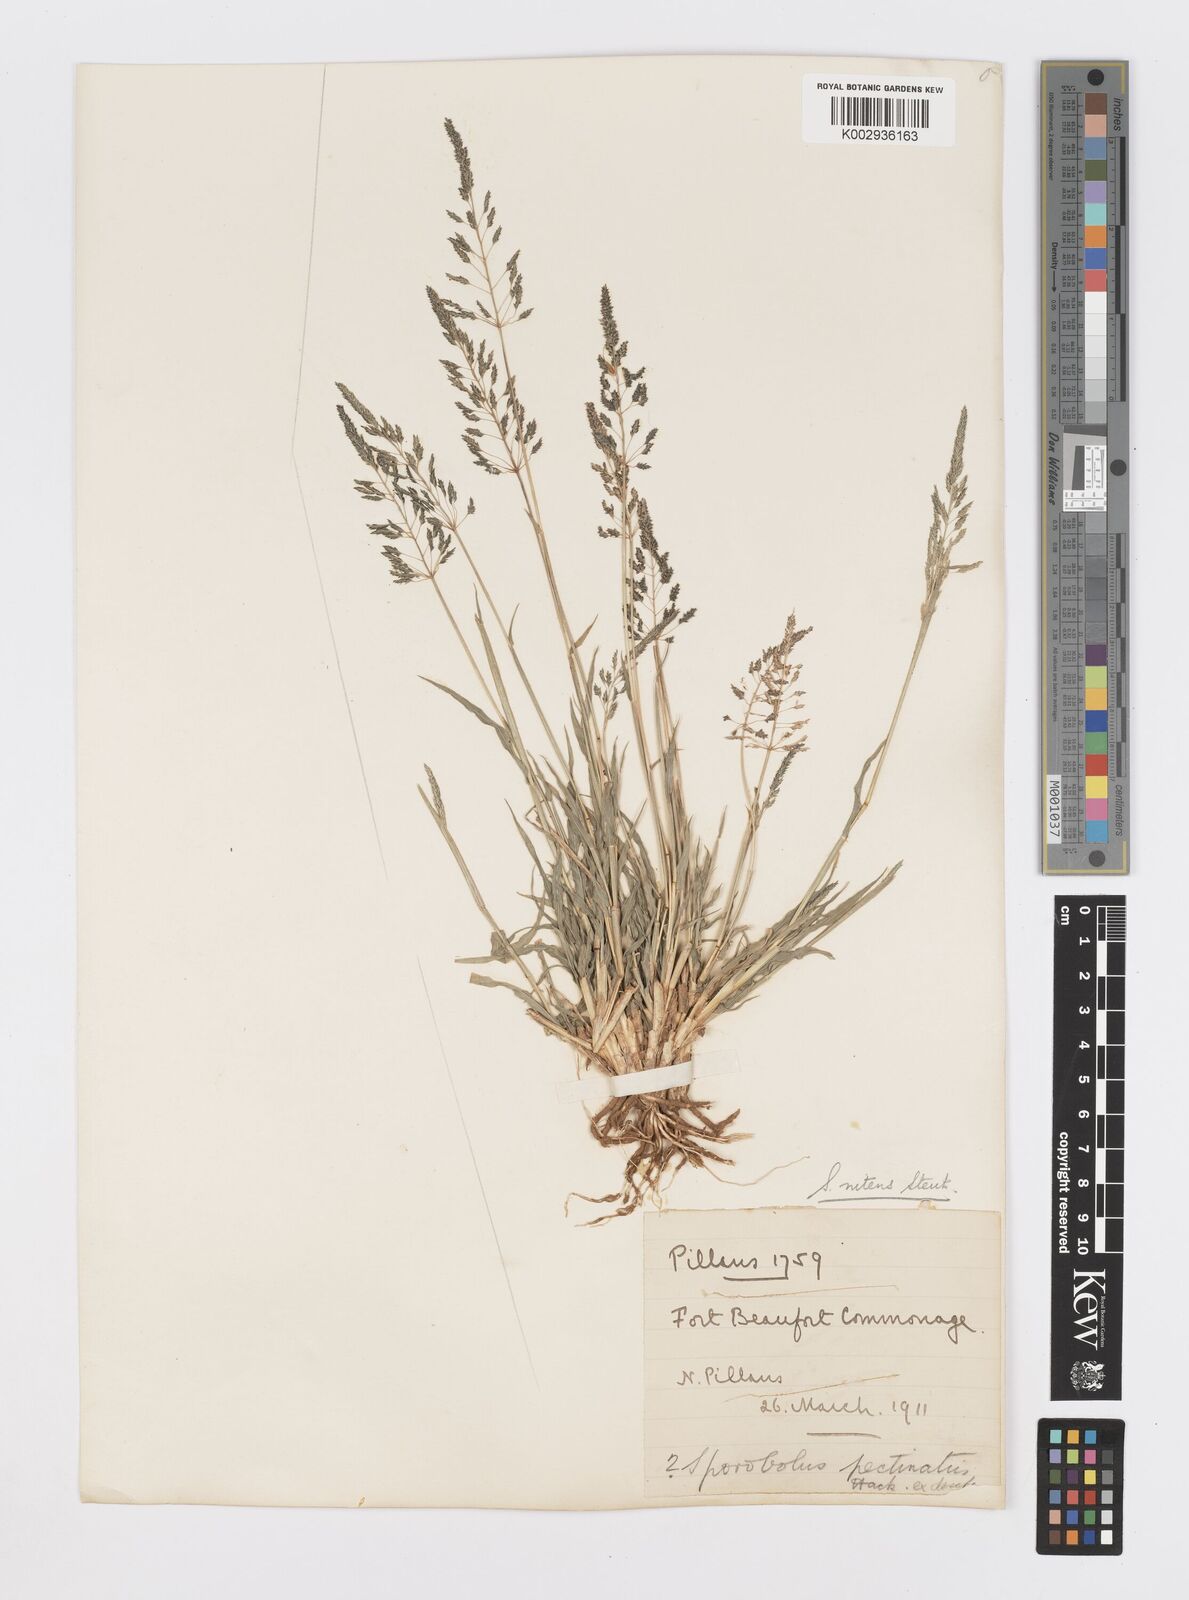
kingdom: Plantae
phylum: Tracheophyta
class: Liliopsida
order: Poales
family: Poaceae
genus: Sporobolus
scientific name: Sporobolus nitens
